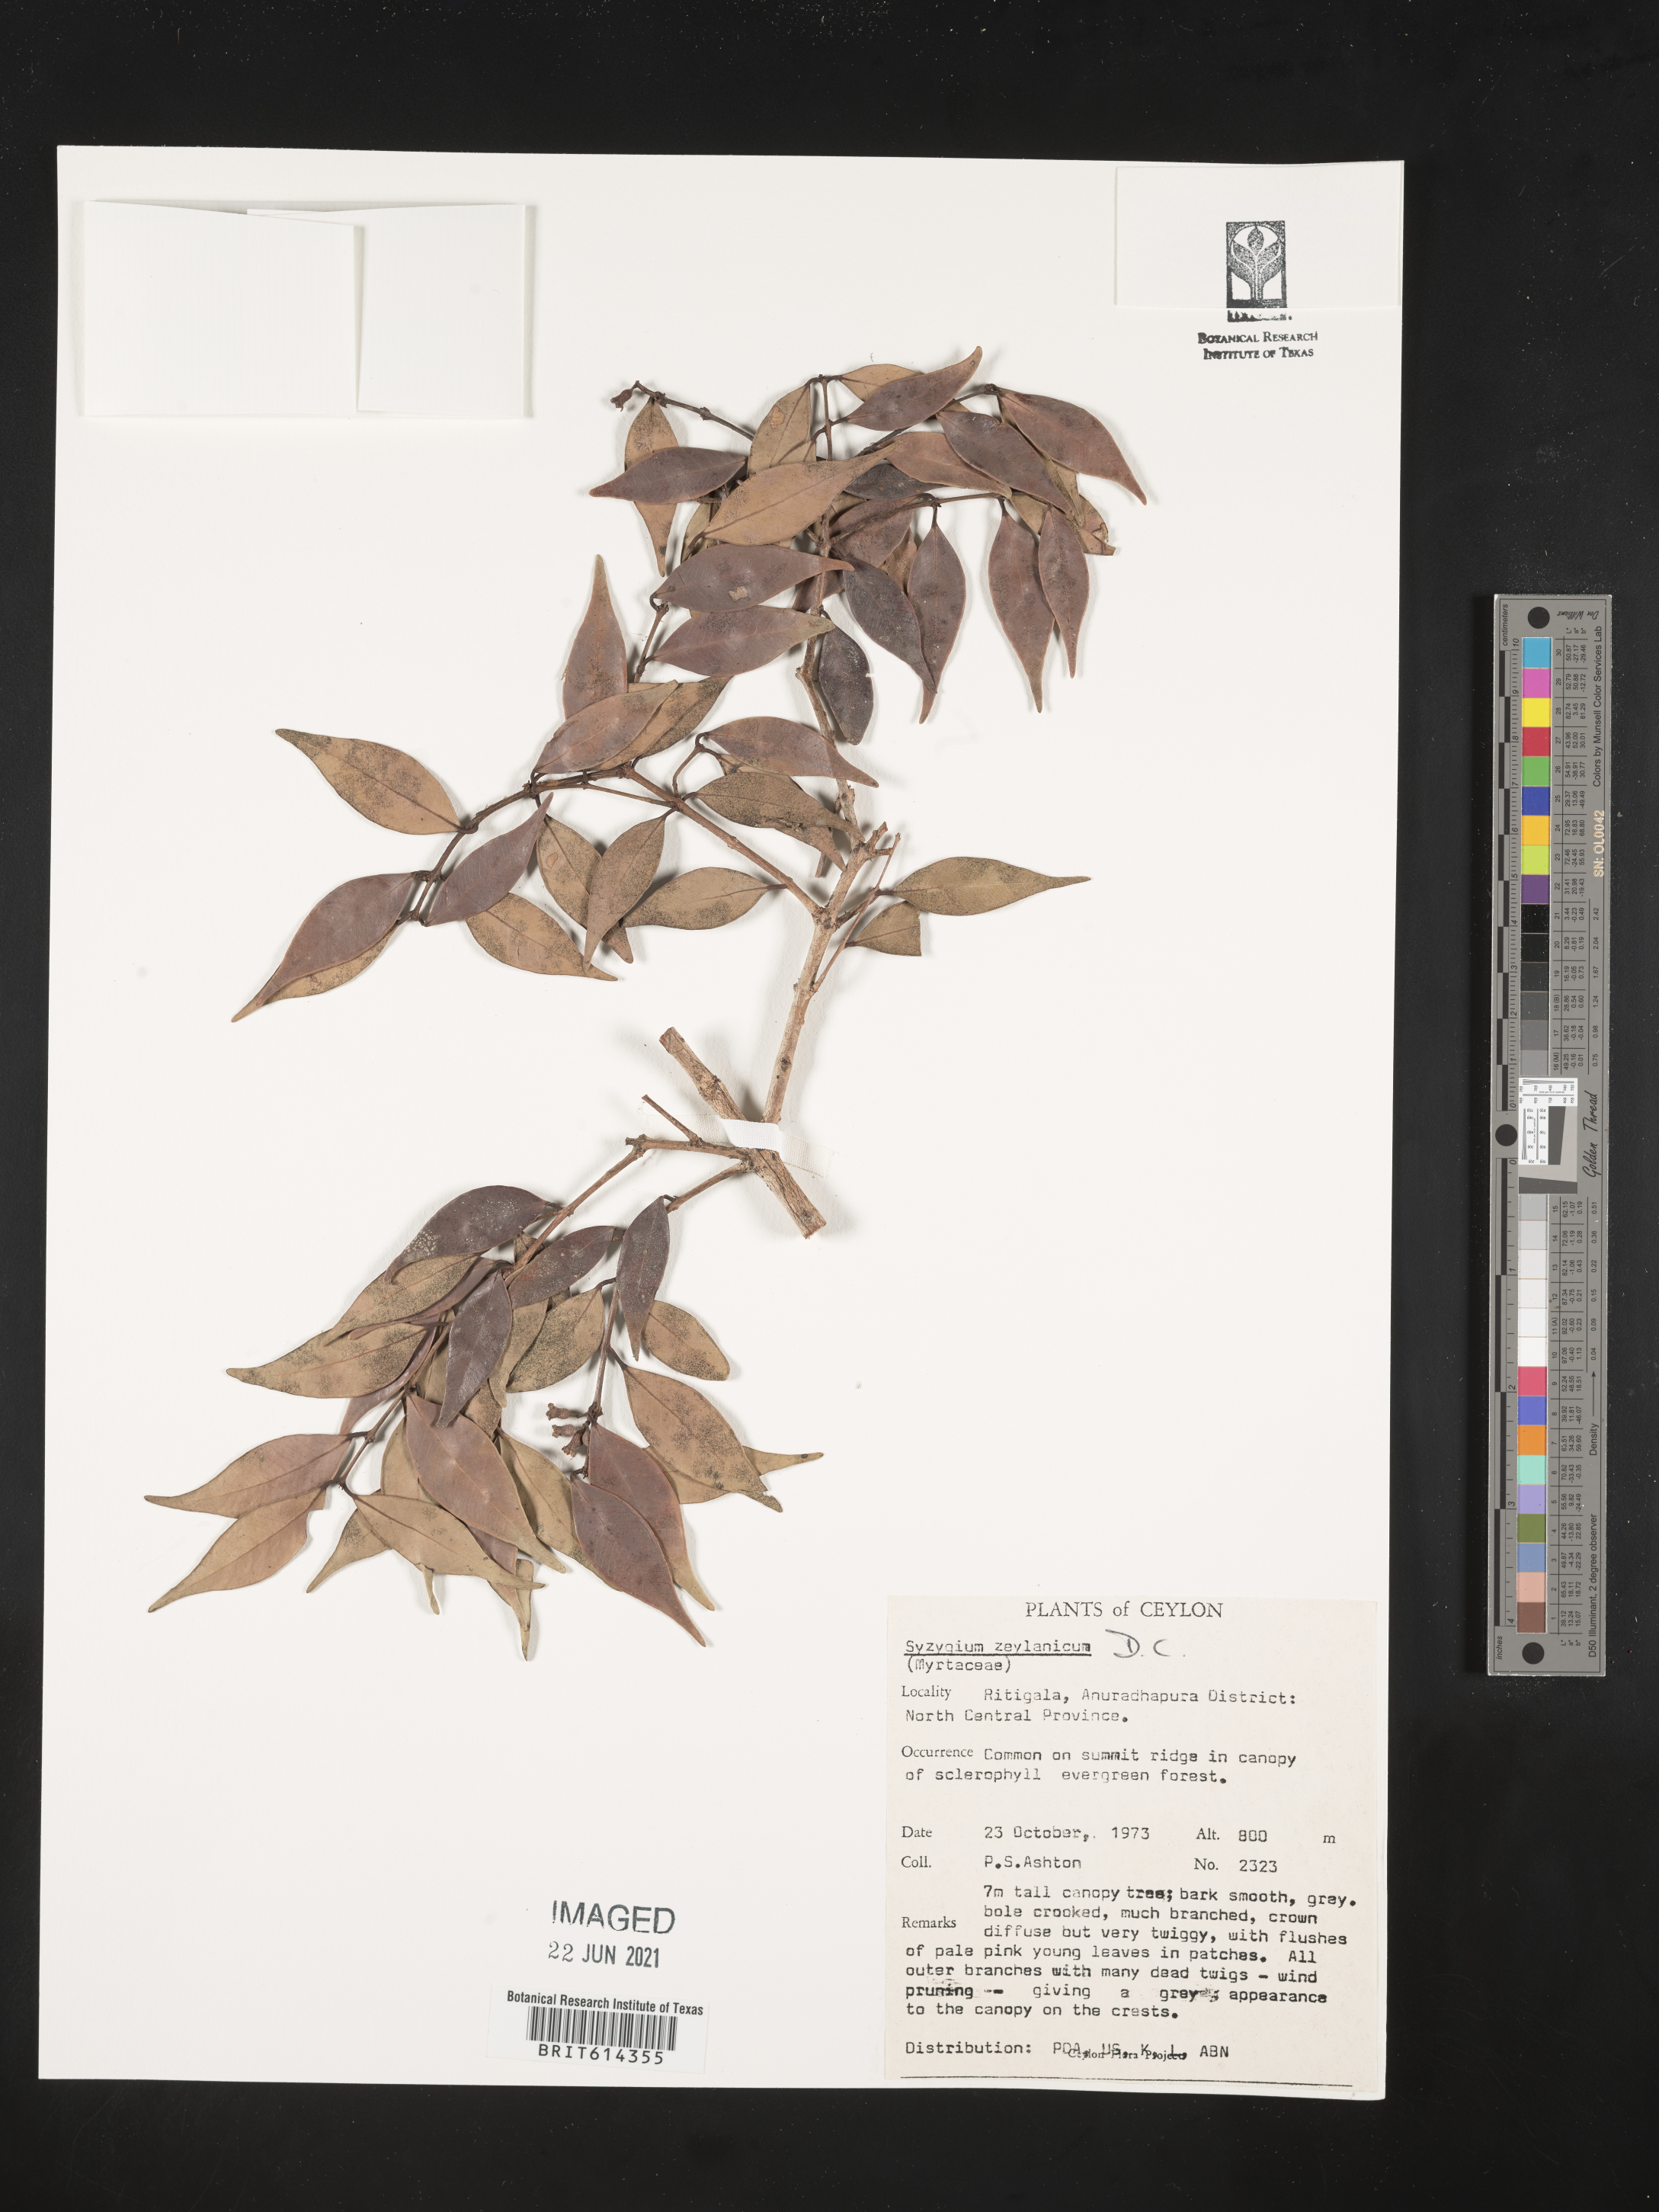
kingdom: Plantae
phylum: Tracheophyta
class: Magnoliopsida
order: Myrtales
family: Myrtaceae
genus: Syzygium
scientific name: Syzygium zeylanicum
